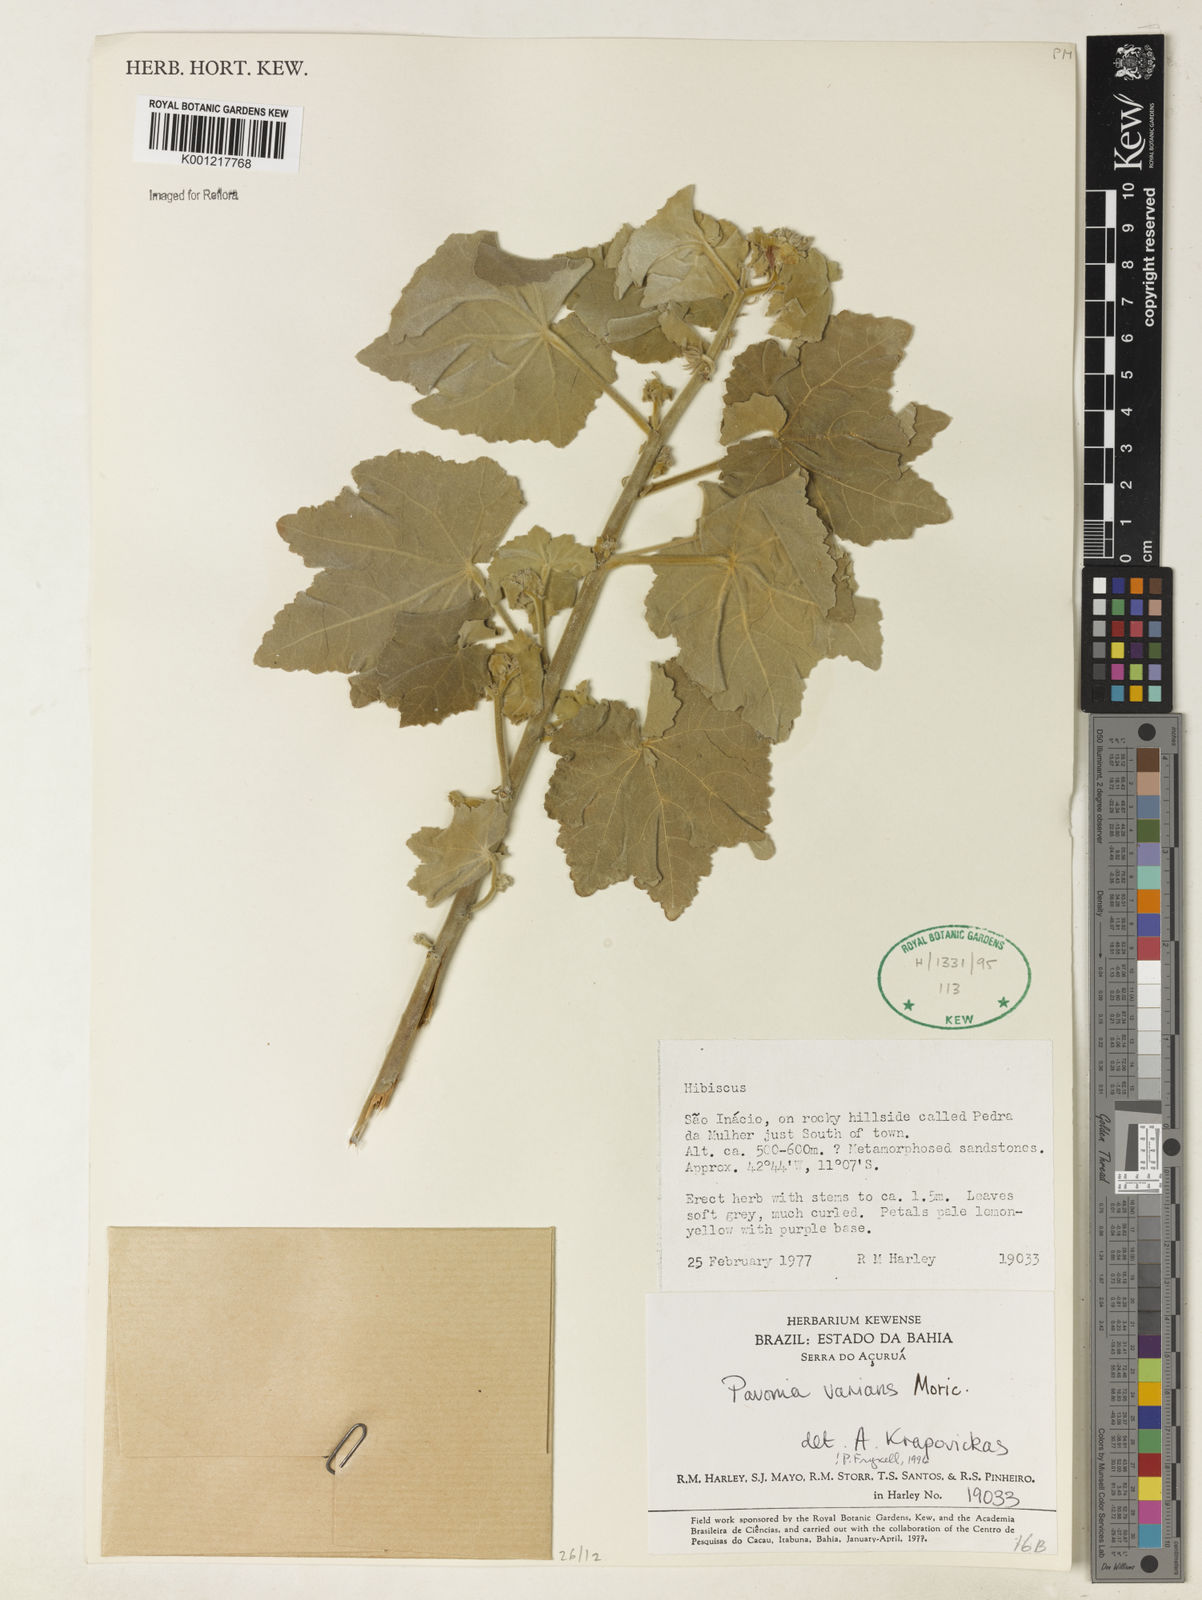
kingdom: Plantae
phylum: Tracheophyta
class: Magnoliopsida
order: Malvales
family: Malvaceae
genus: Pavonia
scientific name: Pavonia varians
